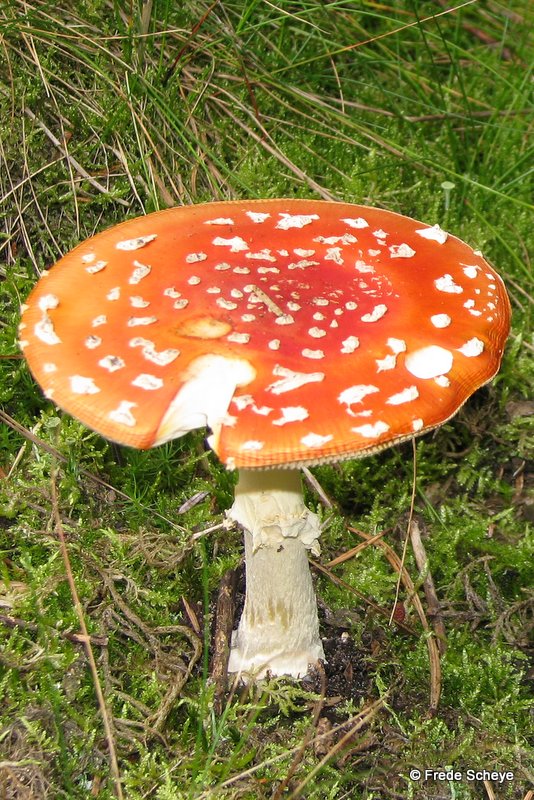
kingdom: Fungi
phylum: Basidiomycota
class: Agaricomycetes
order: Agaricales
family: Amanitaceae
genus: Amanita
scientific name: Amanita muscaria
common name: rød fluesvamp
